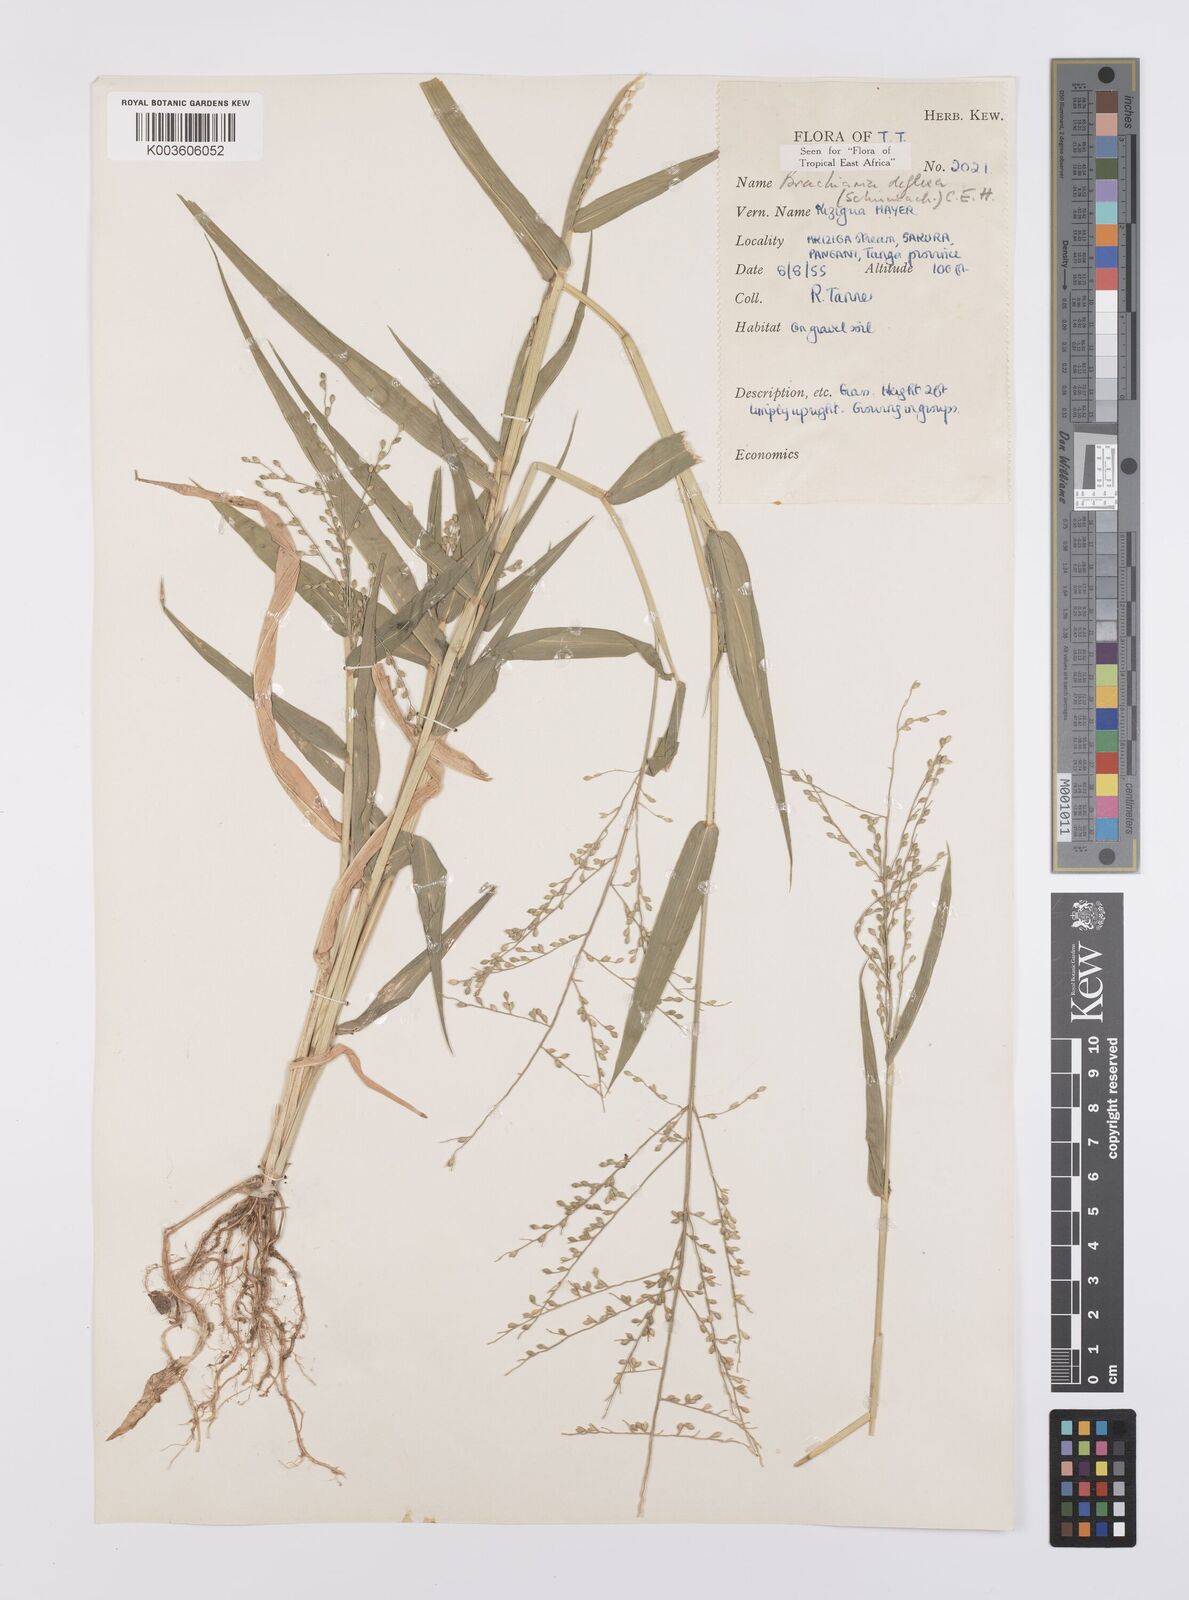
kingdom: Plantae
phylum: Tracheophyta
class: Liliopsida
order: Poales
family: Poaceae
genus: Urochloa
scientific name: Urochloa deflexa
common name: Guinea millet
